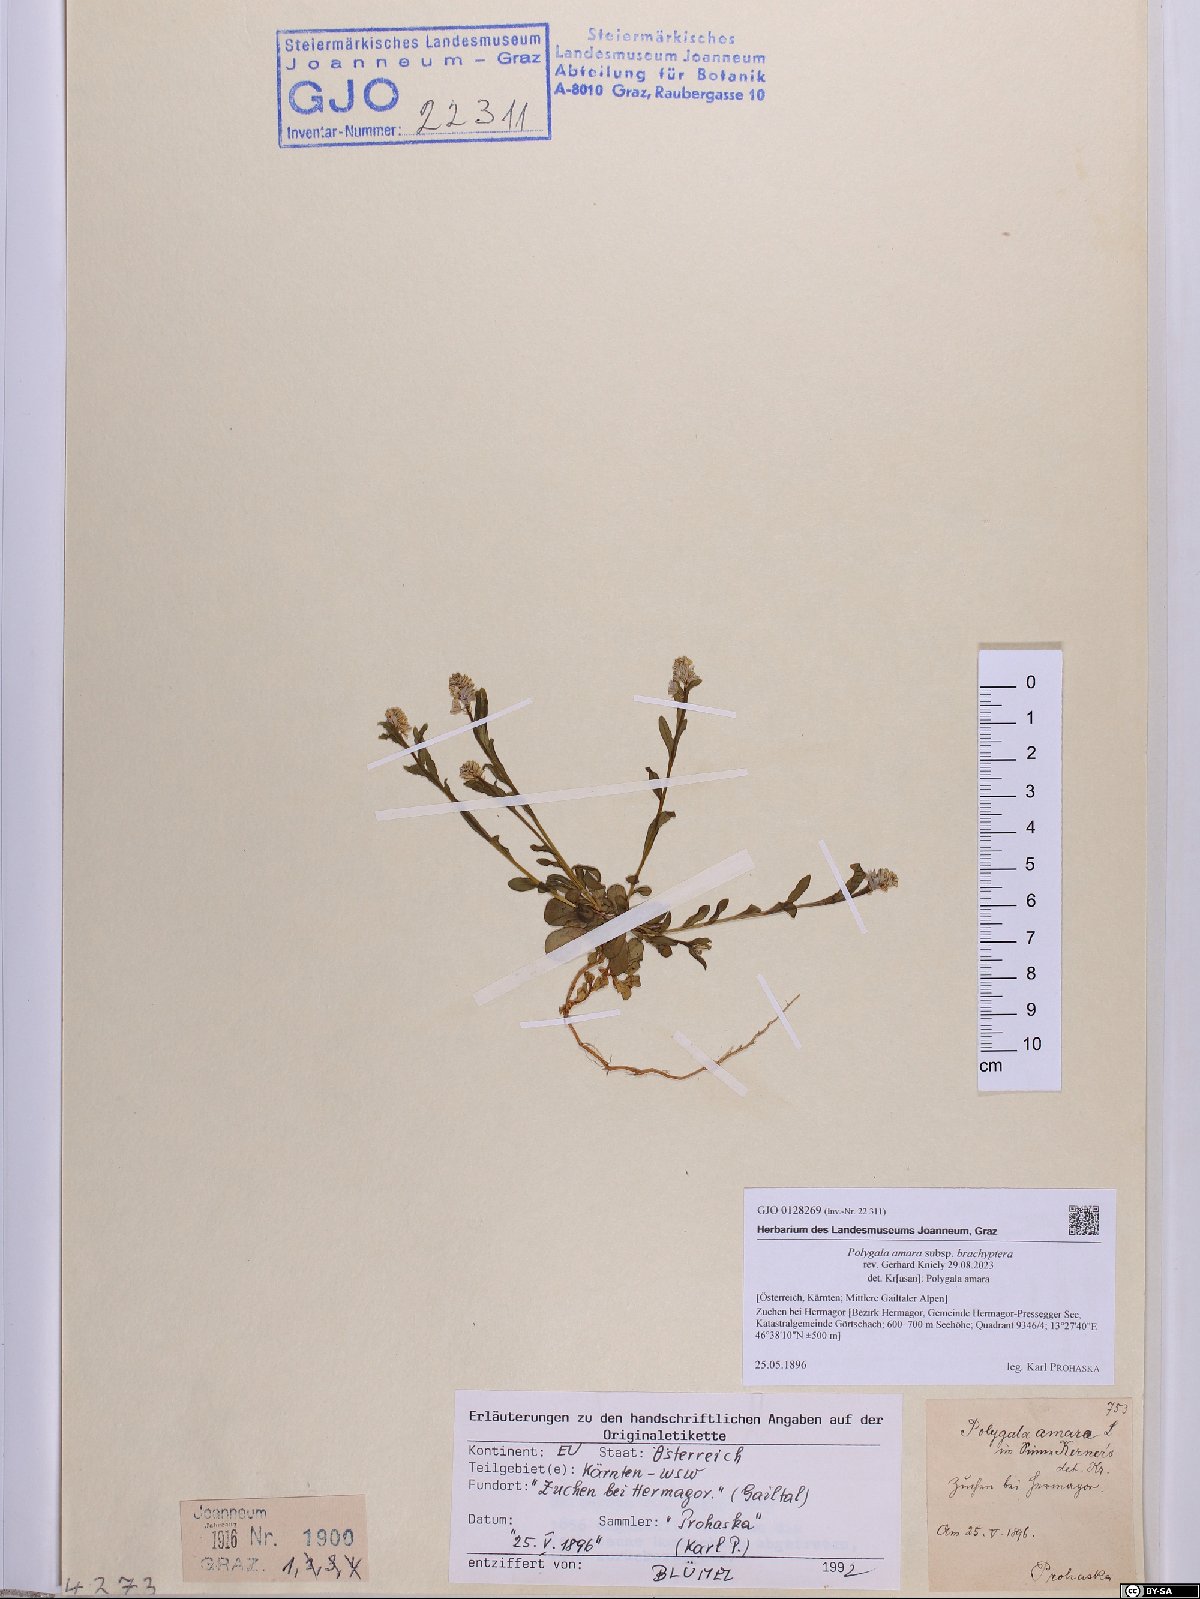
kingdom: Plantae
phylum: Tracheophyta
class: Magnoliopsida
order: Fabales
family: Polygalaceae
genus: Polygala
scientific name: Polygala amara
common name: Milkwort
